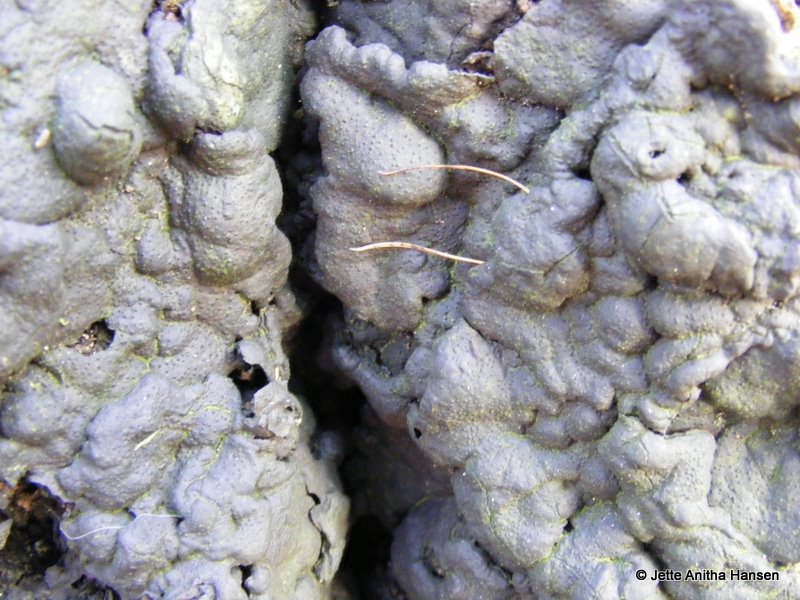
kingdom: Fungi
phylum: Ascomycota
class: Sordariomycetes
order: Xylariales
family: Xylariaceae
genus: Kretzschmaria
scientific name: Kretzschmaria deusta
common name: stor kulsvamp
